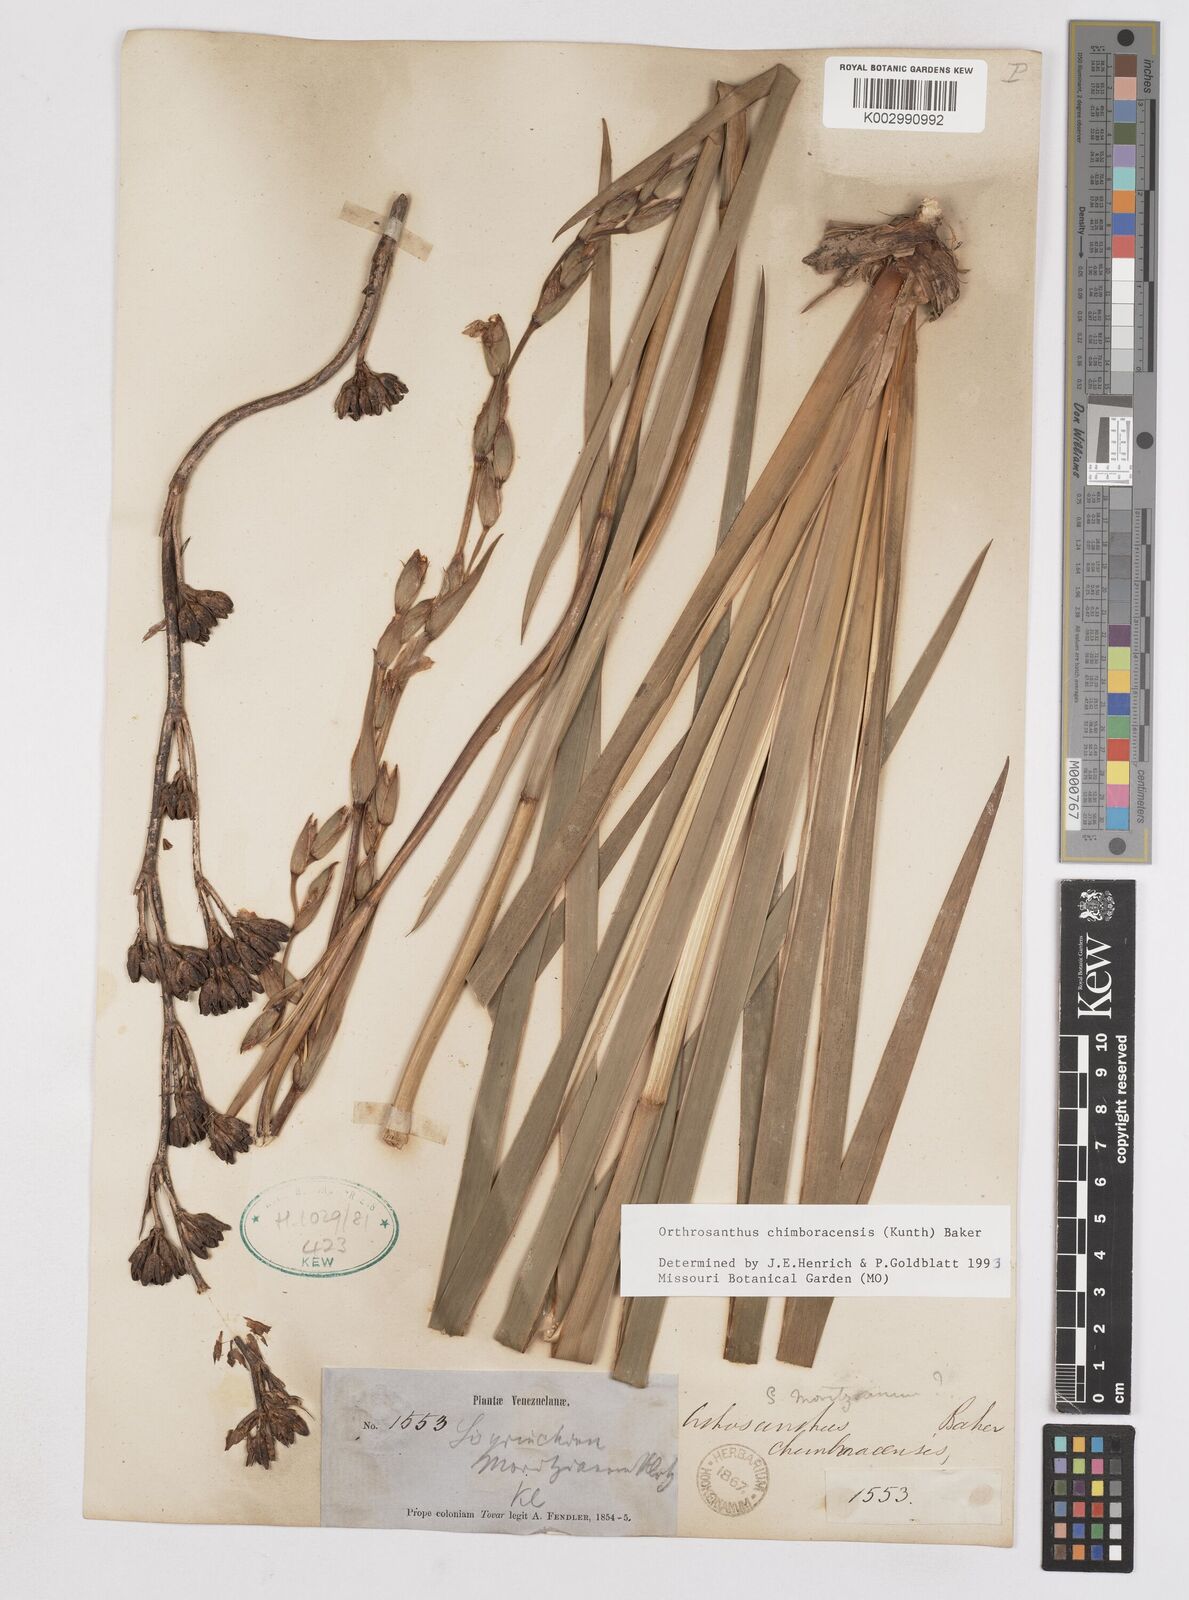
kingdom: Plantae
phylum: Tracheophyta
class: Liliopsida
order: Asparagales
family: Iridaceae
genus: Orthrosanthus
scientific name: Orthrosanthus chimboracensis
